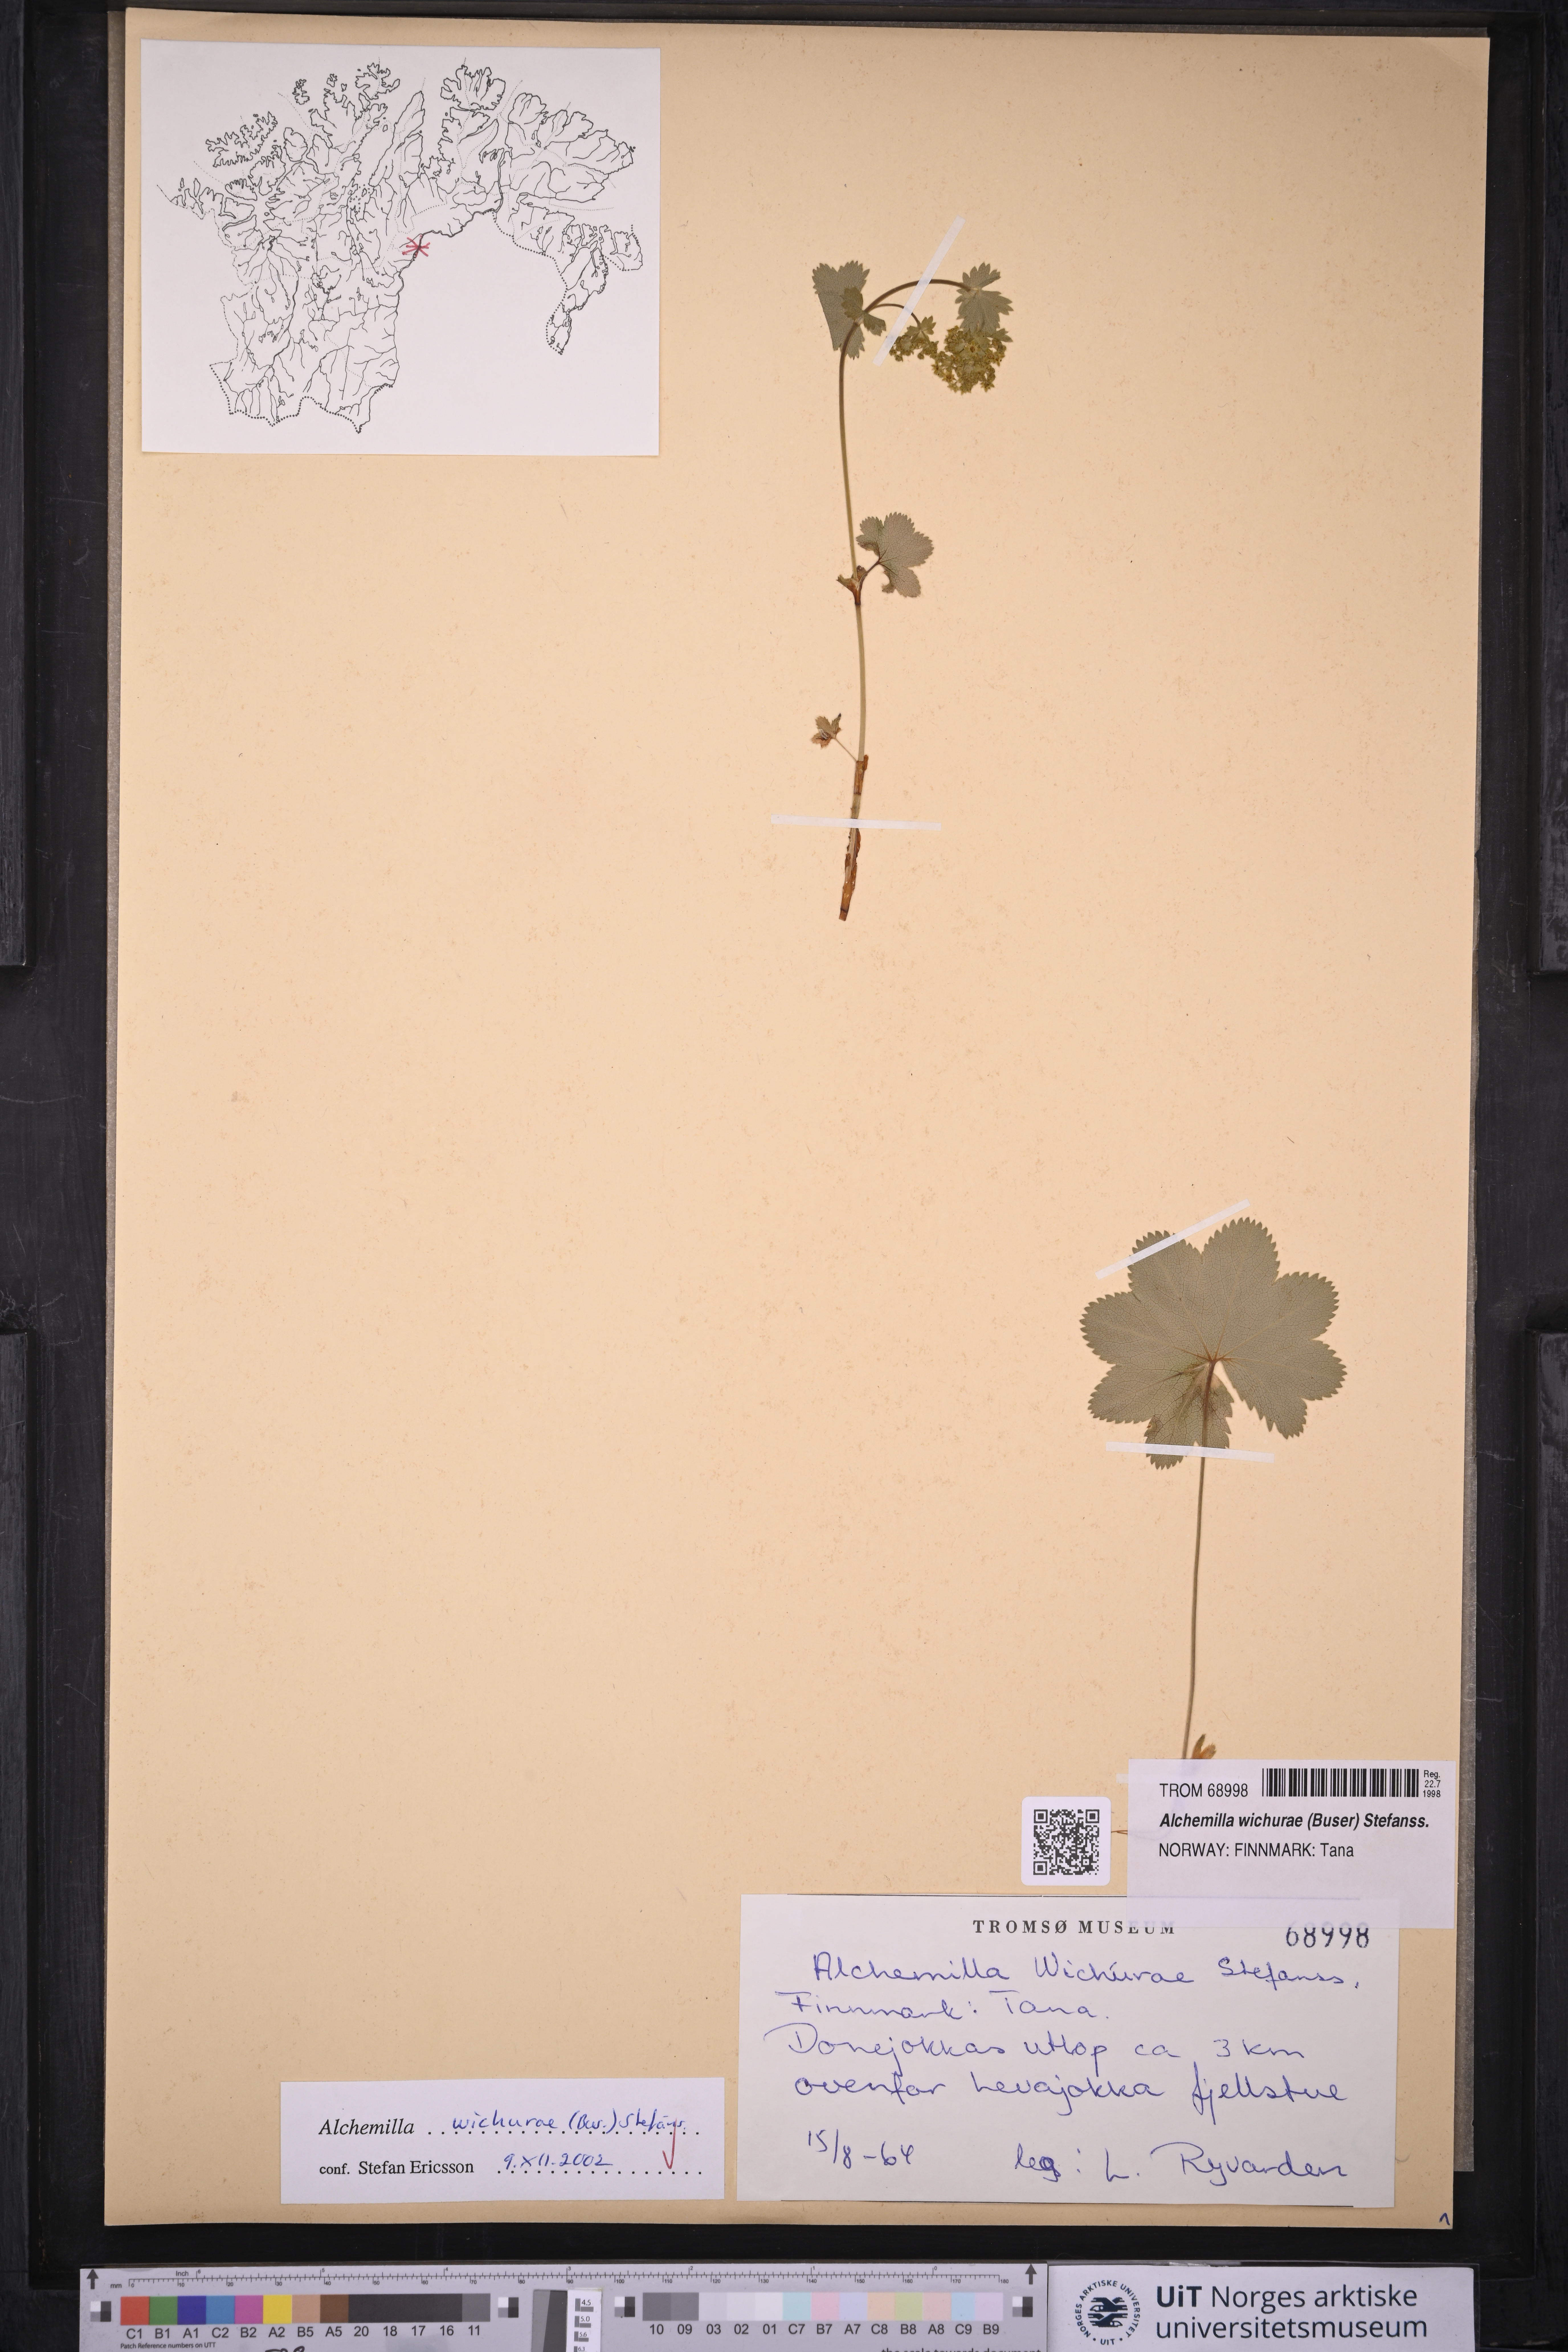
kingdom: Plantae
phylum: Tracheophyta
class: Magnoliopsida
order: Rosales
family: Rosaceae
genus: Alchemilla
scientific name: Alchemilla wichurae
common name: Rock lady's mantle
